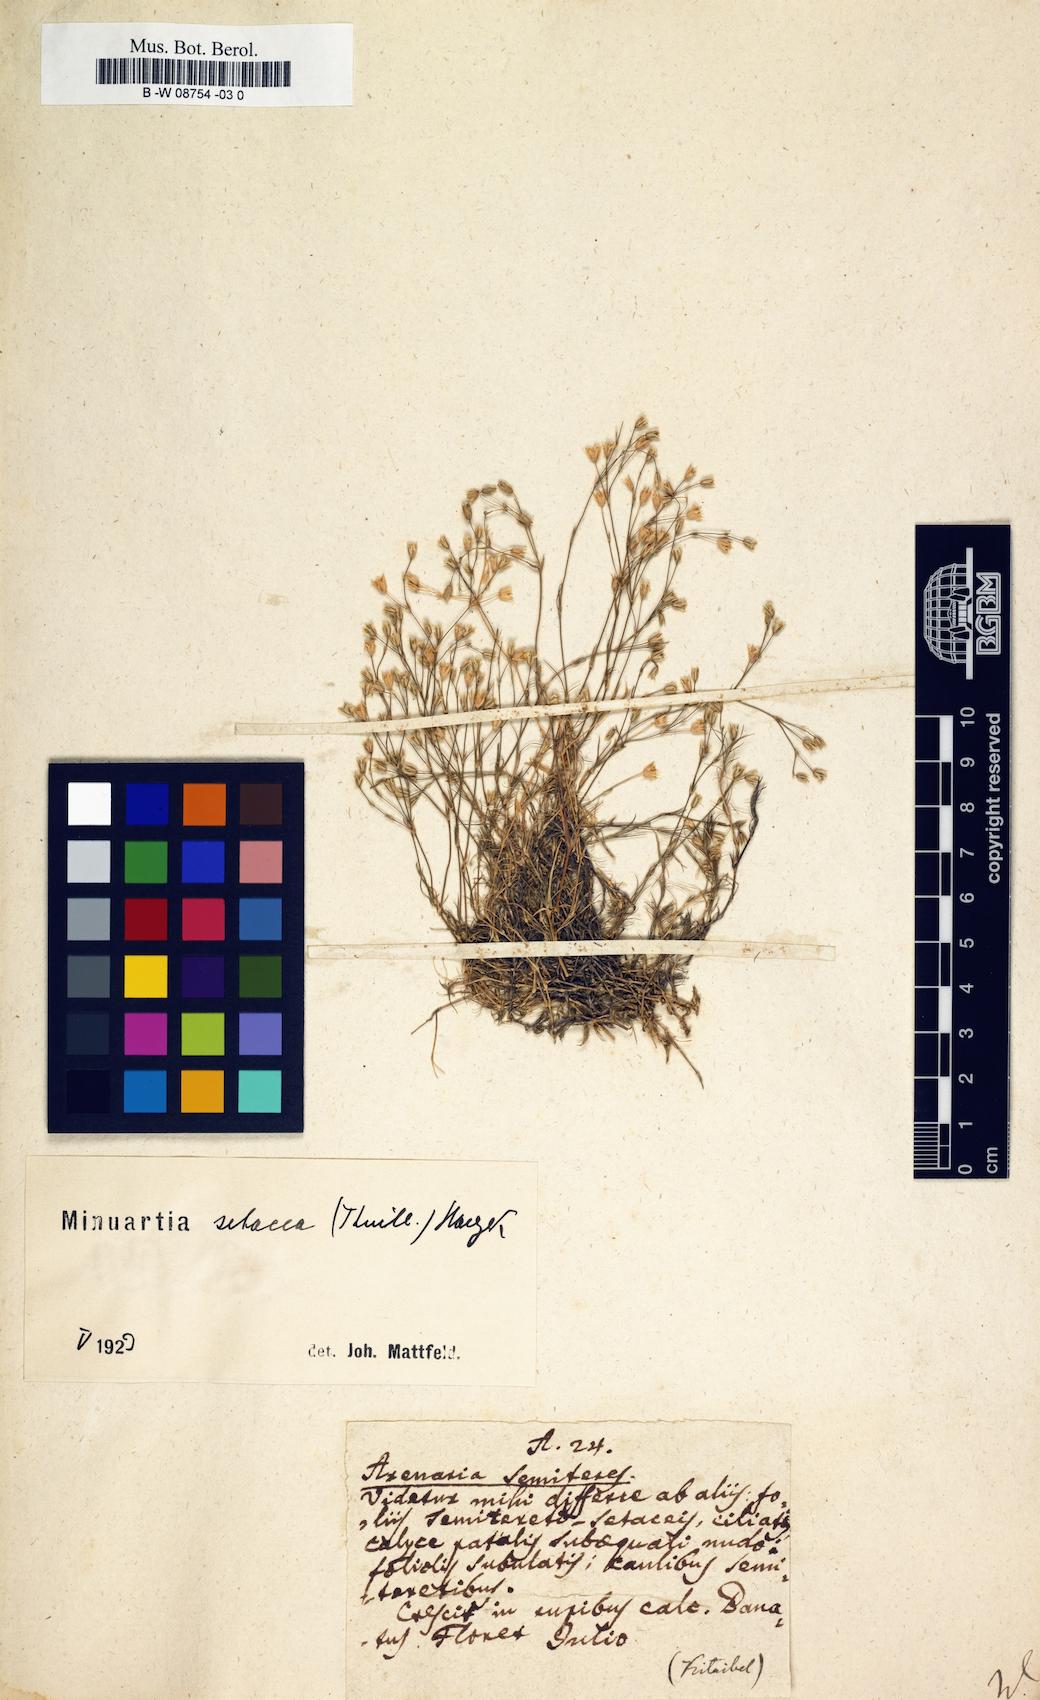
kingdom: Plantae
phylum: Tracheophyta
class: Magnoliopsida
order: Caryophyllales
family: Caryophyllaceae
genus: Arenaria
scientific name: Arenaria
